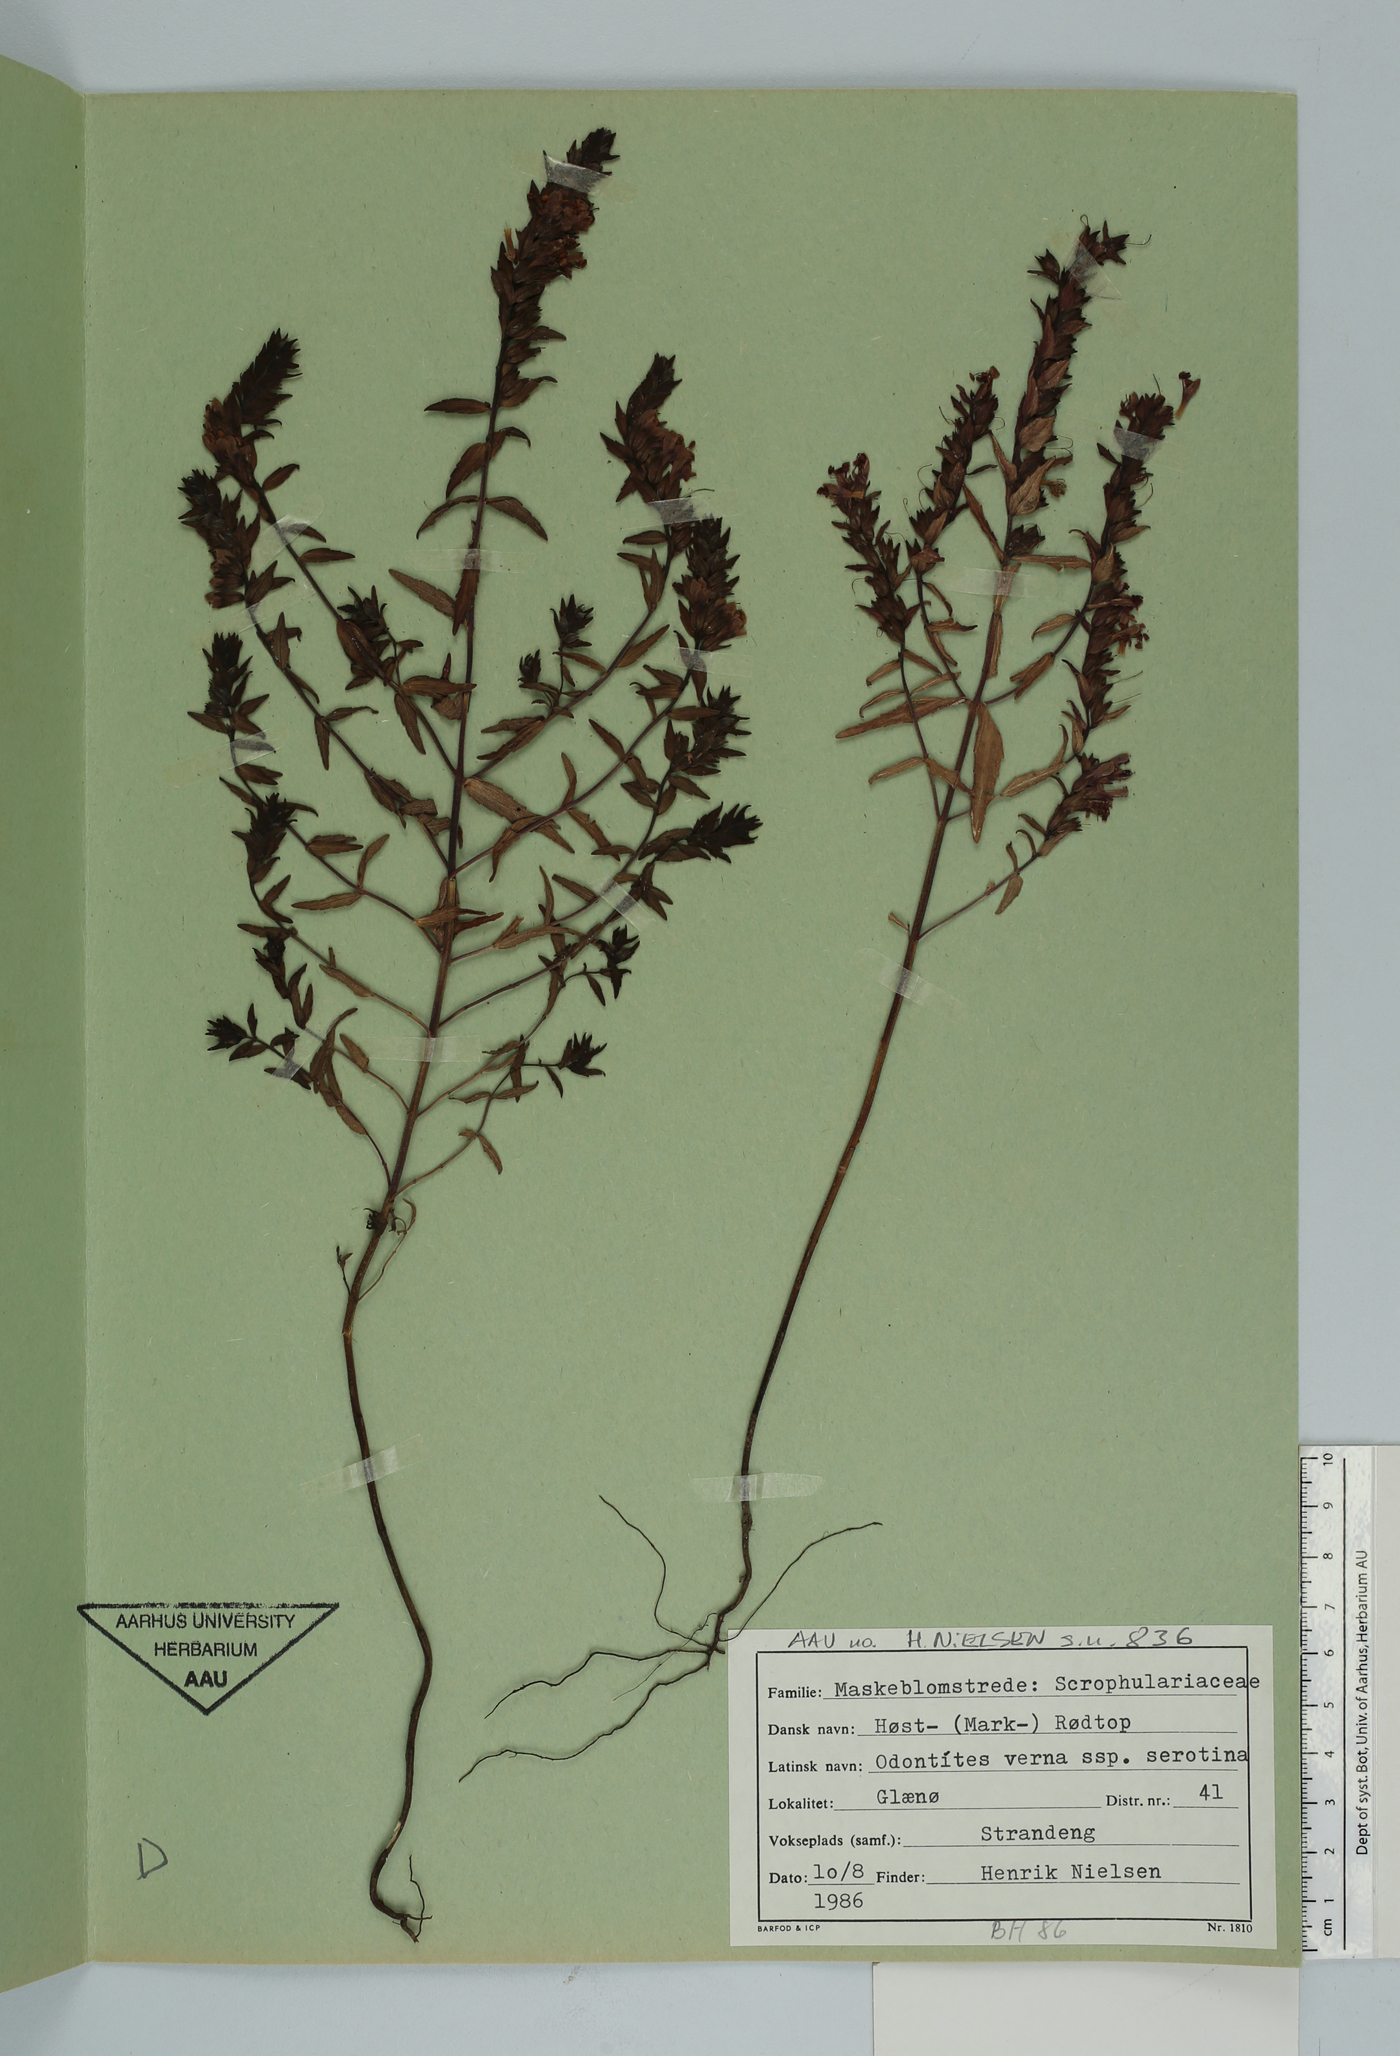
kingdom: Plantae
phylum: Tracheophyta
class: Magnoliopsida
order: Lamiales
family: Orobanchaceae
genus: Odontites
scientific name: Odontites vulgaris
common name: Broomrape
